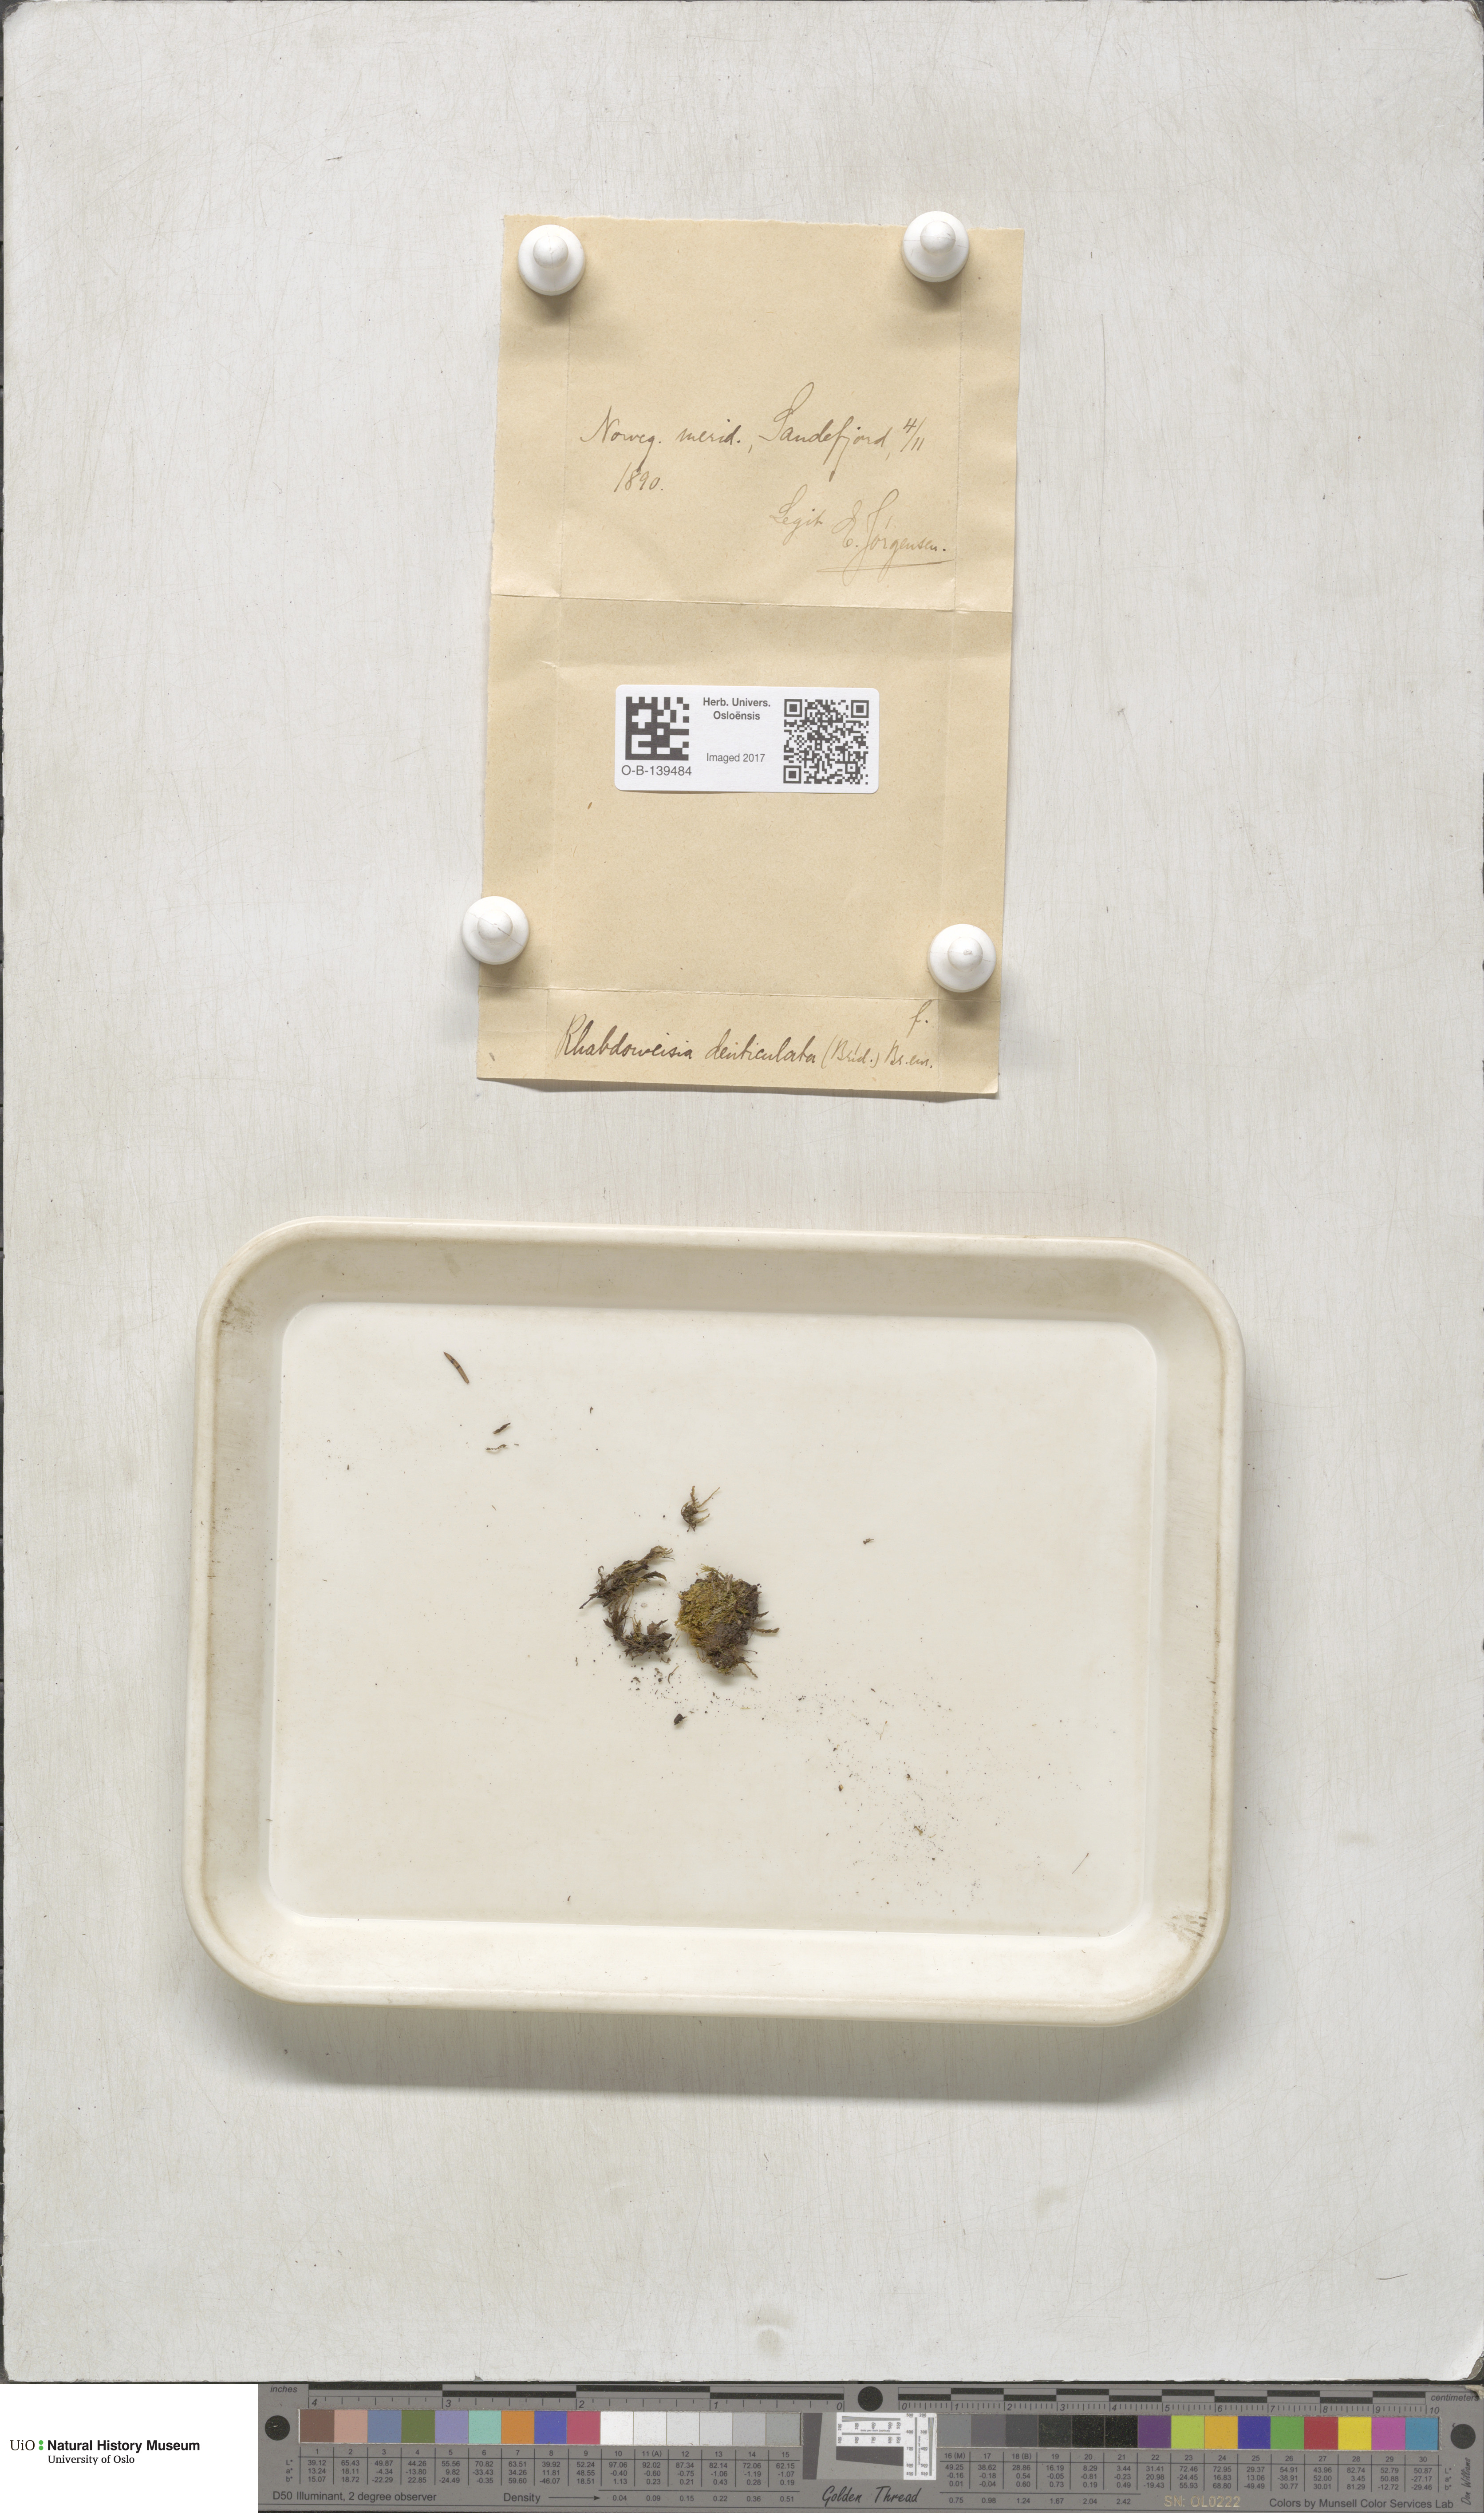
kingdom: Plantae
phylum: Bryophyta
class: Bryopsida
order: Dicranales
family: Rhabdoweisiaceae
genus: Rhabdoweisia
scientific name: Rhabdoweisia crispata
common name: Fine-toothed streak moss
